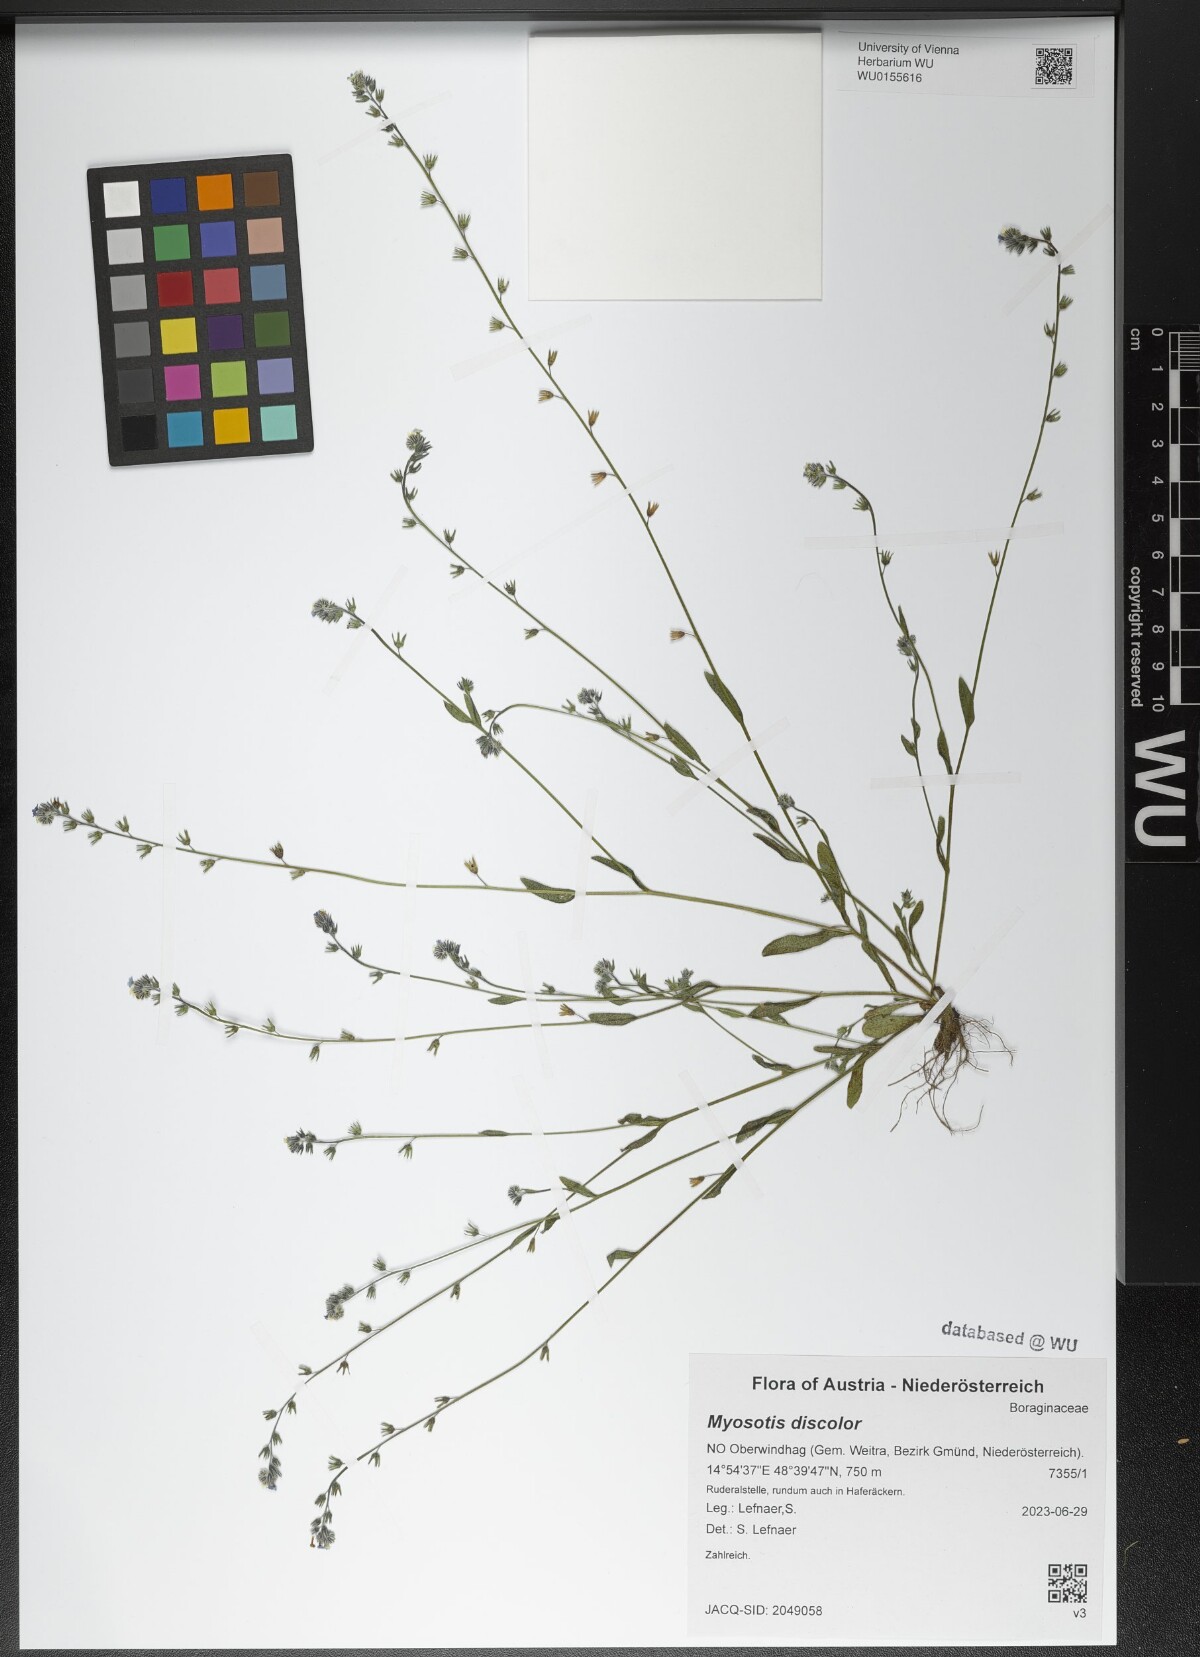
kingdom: Plantae
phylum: Tracheophyta
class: Magnoliopsida
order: Boraginales
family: Boraginaceae
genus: Myosotis
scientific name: Myosotis discolor
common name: Changing forget-me-not
